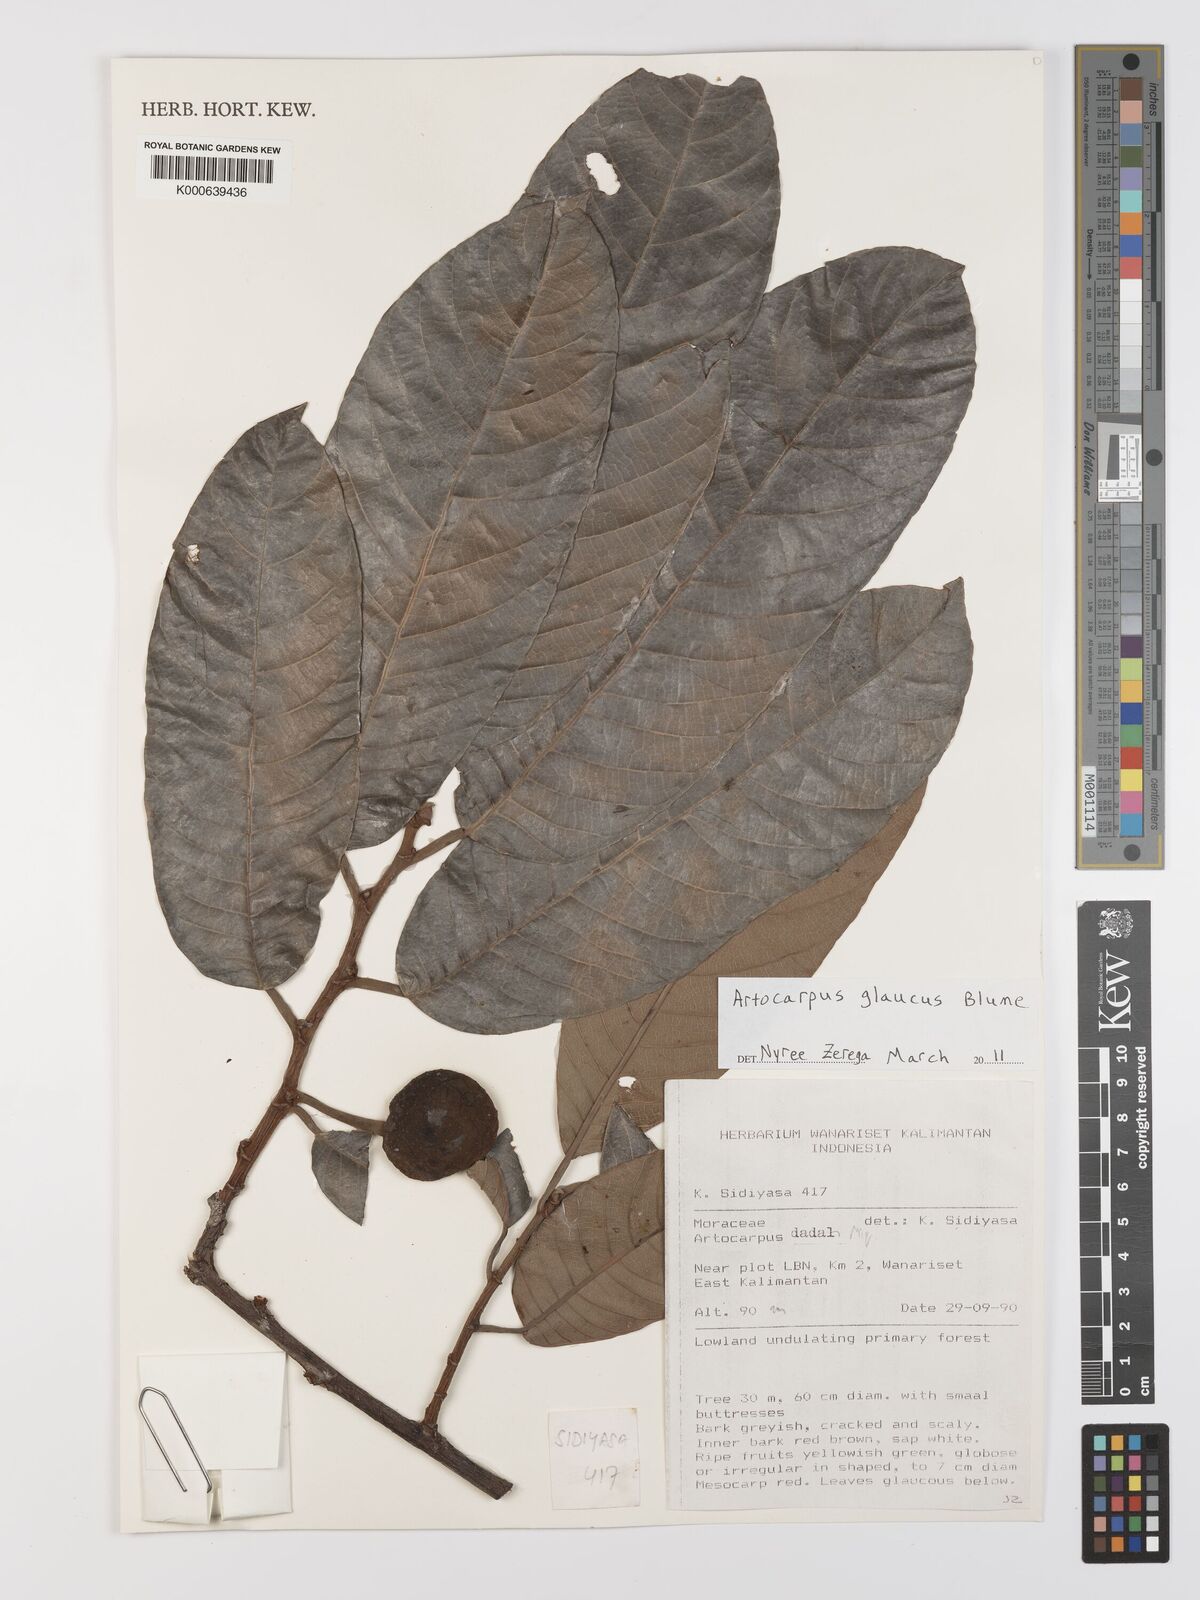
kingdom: Plantae
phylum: Tracheophyta
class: Magnoliopsida
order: Rosales
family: Moraceae
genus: Artocarpus
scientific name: Artocarpus glaucus
